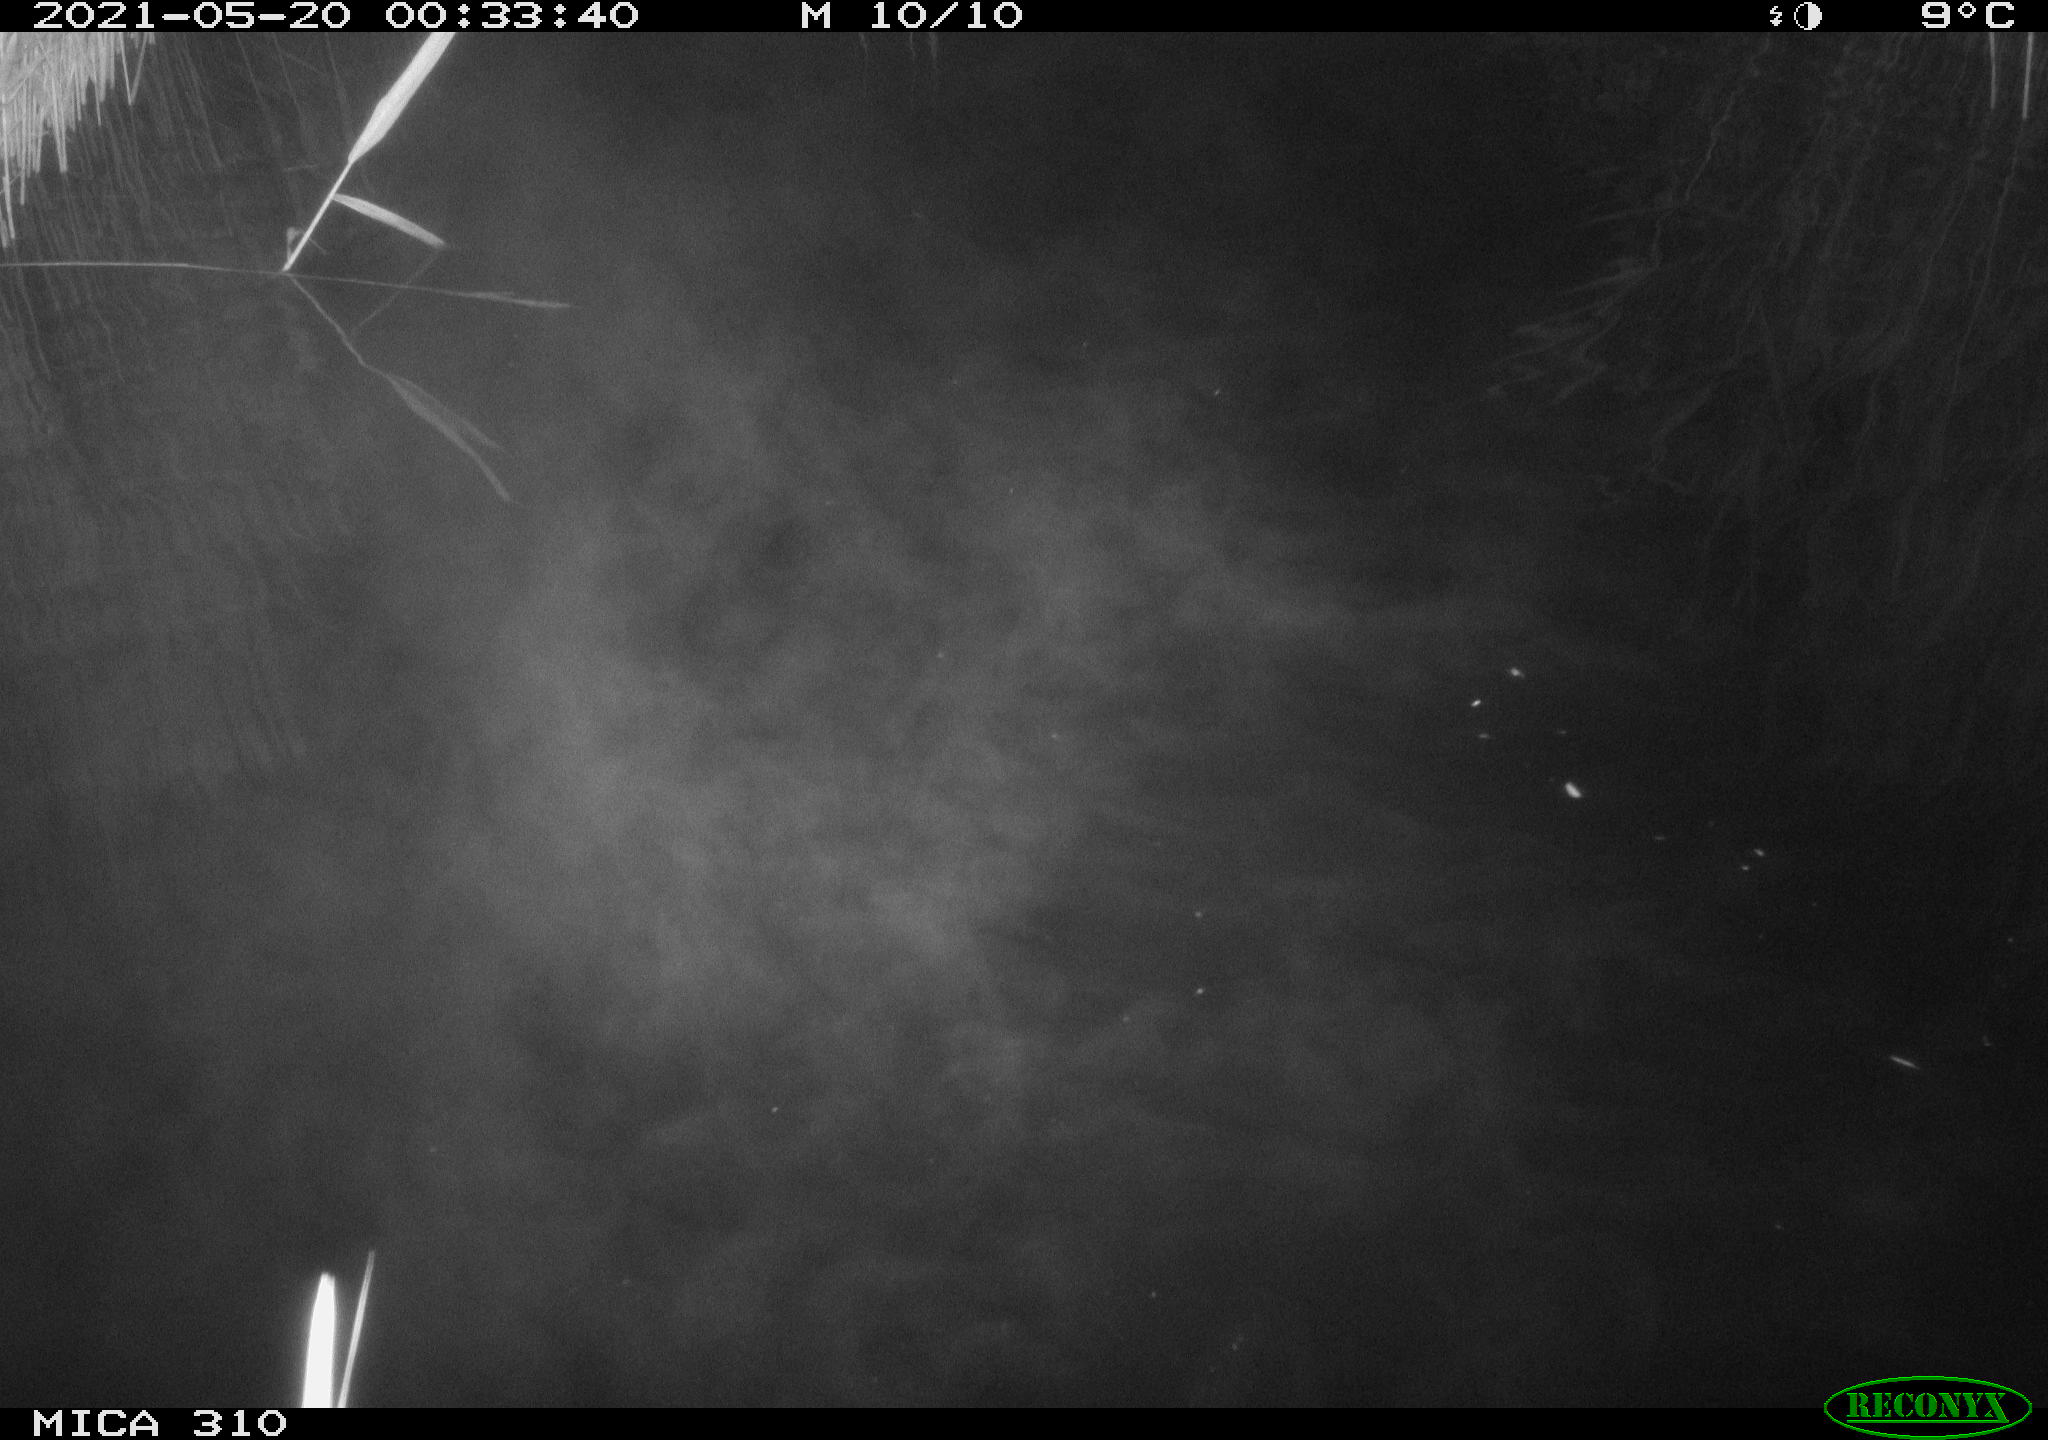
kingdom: Animalia
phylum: Chordata
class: Aves
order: Anseriformes
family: Anatidae
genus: Anas
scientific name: Anas platyrhynchos
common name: Mallard
